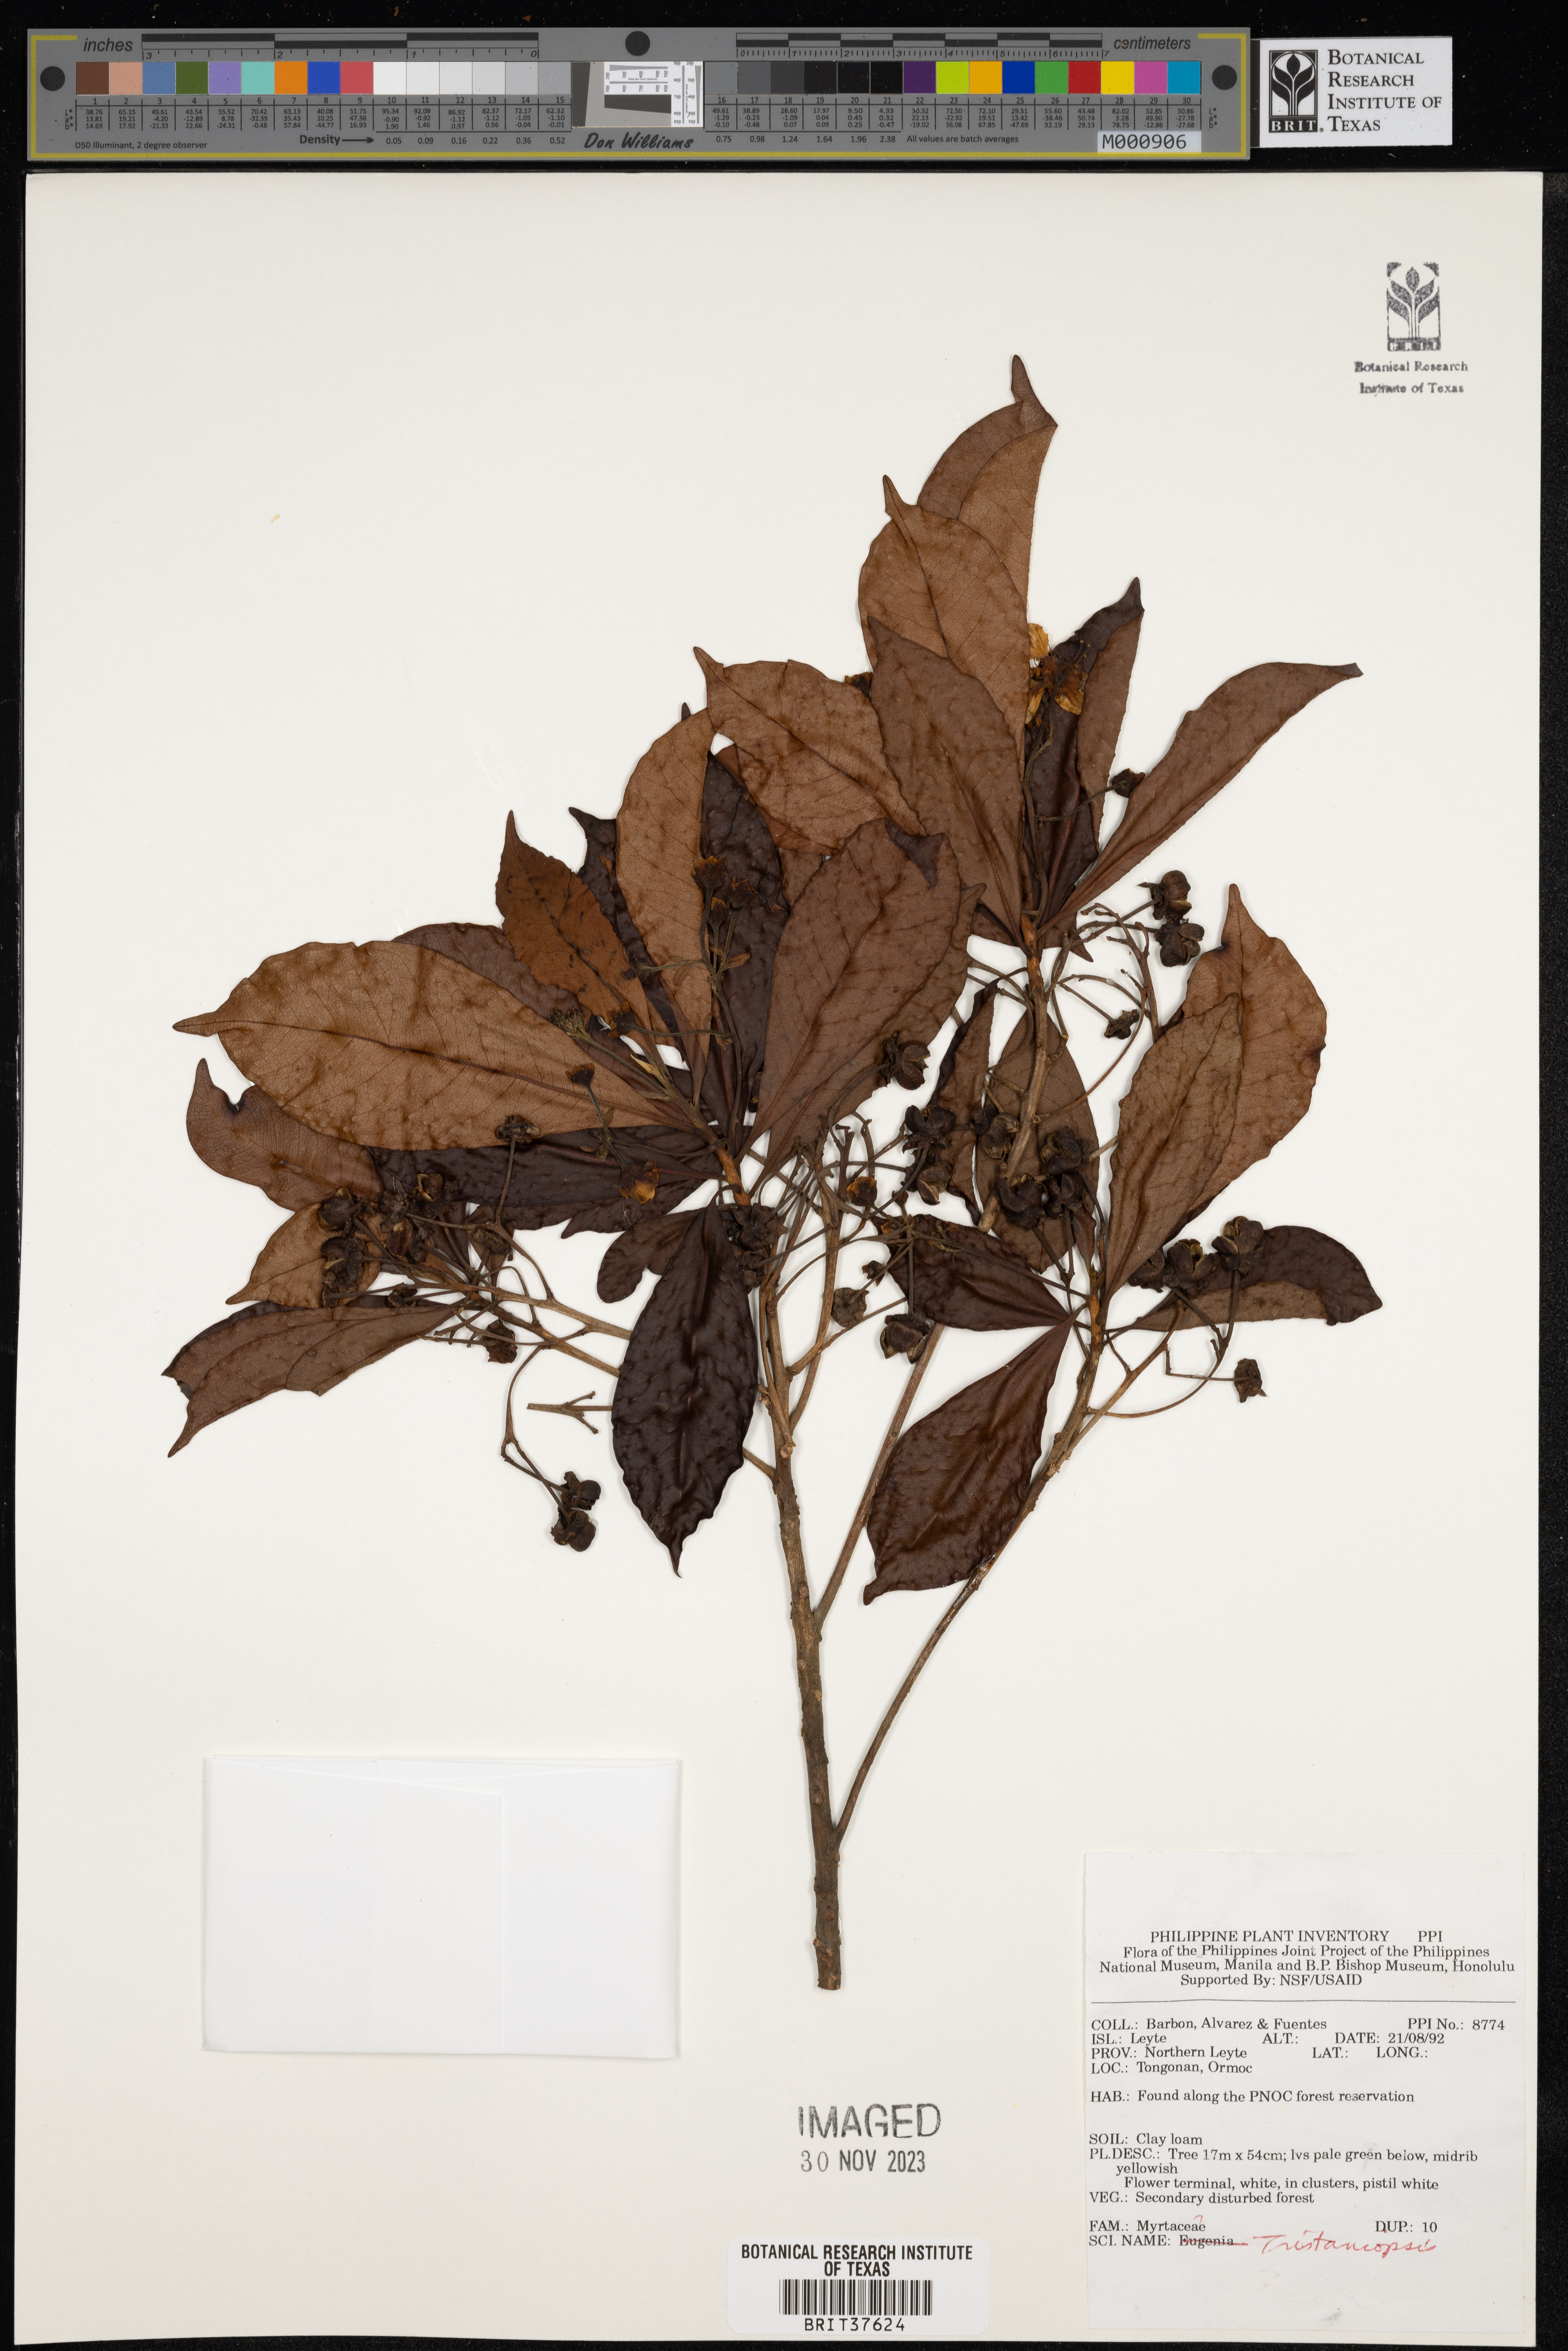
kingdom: Plantae
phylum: Tracheophyta
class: Magnoliopsida
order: Myrtales
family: Myrtaceae
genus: Tristaniopsis
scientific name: Tristaniopsis
